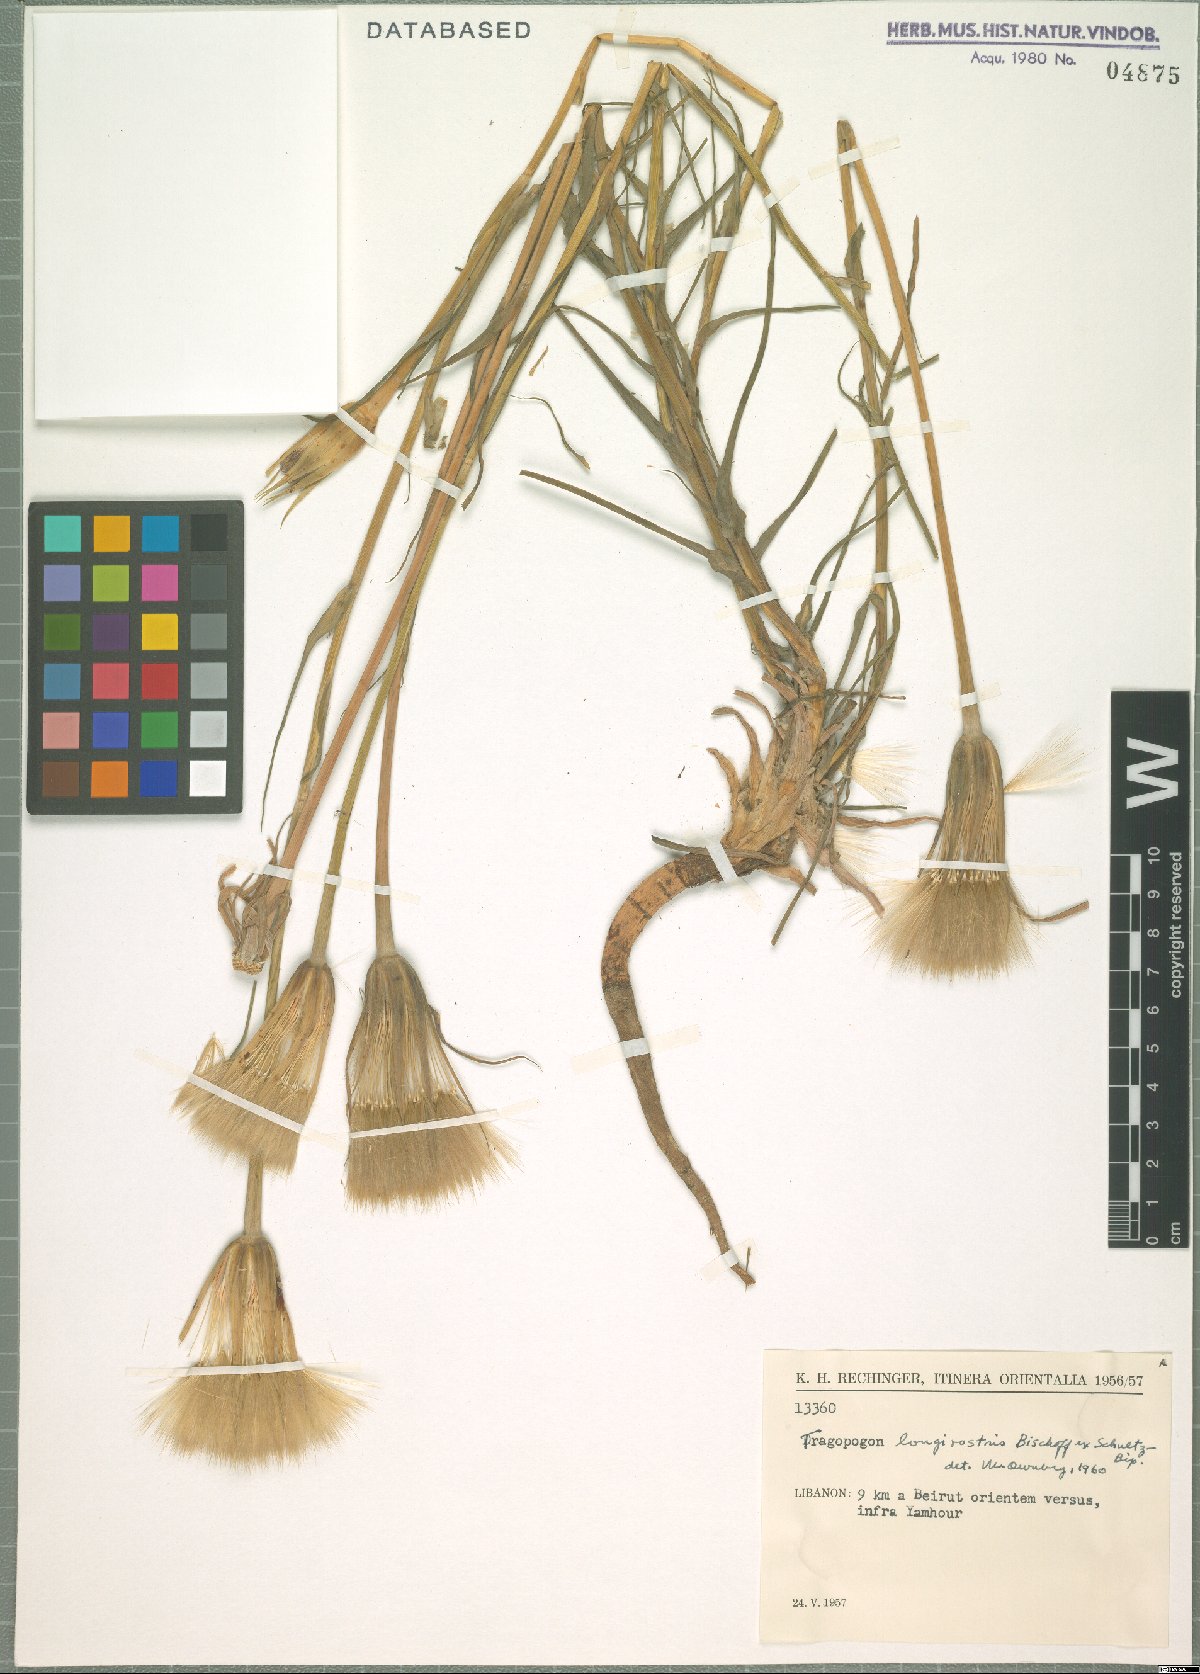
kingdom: Plantae
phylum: Tracheophyta
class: Magnoliopsida
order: Asterales
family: Asteraceae
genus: Tragopogon
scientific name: Tragopogon coelesyriacus
